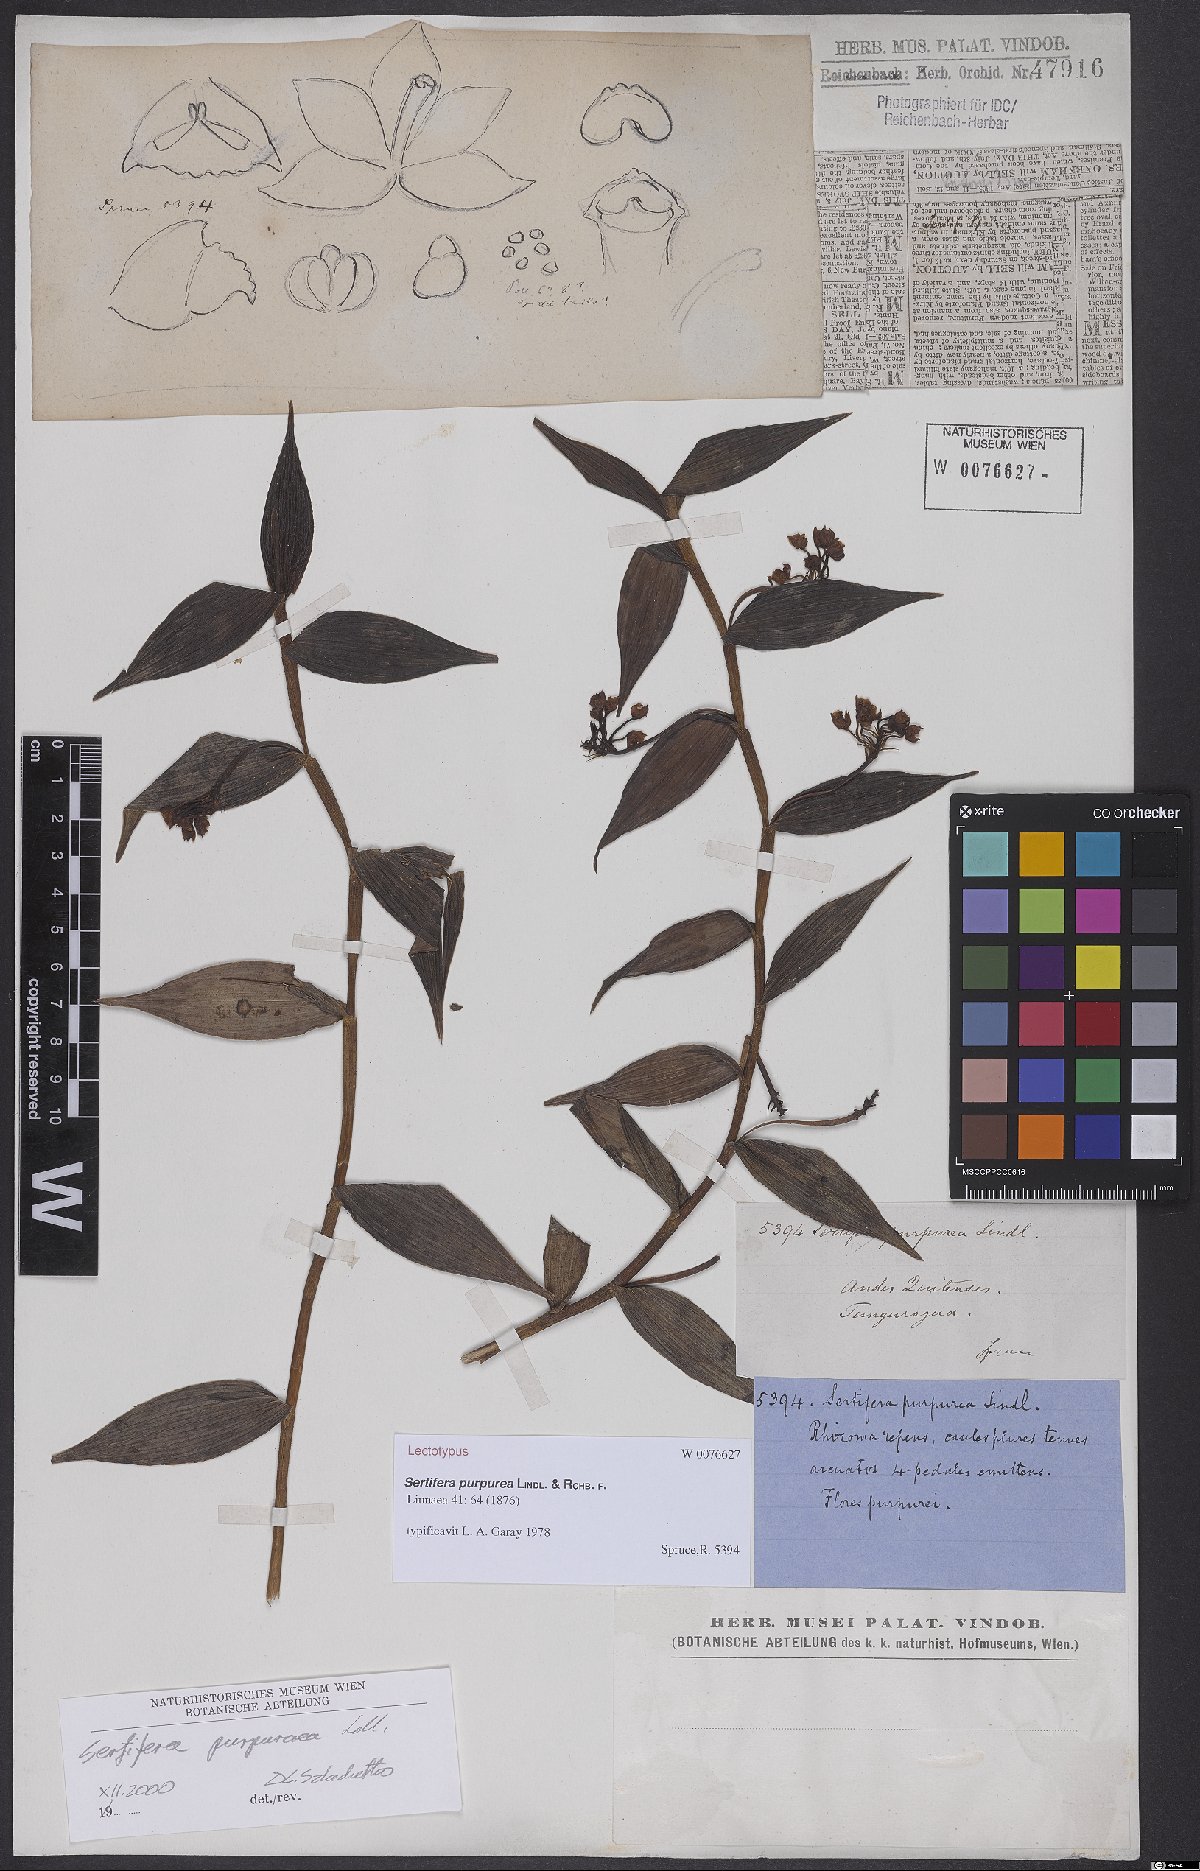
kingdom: Plantae
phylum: Tracheophyta
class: Liliopsida
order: Asparagales
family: Orchidaceae
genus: Sertifera
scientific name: Sertifera purpurea
